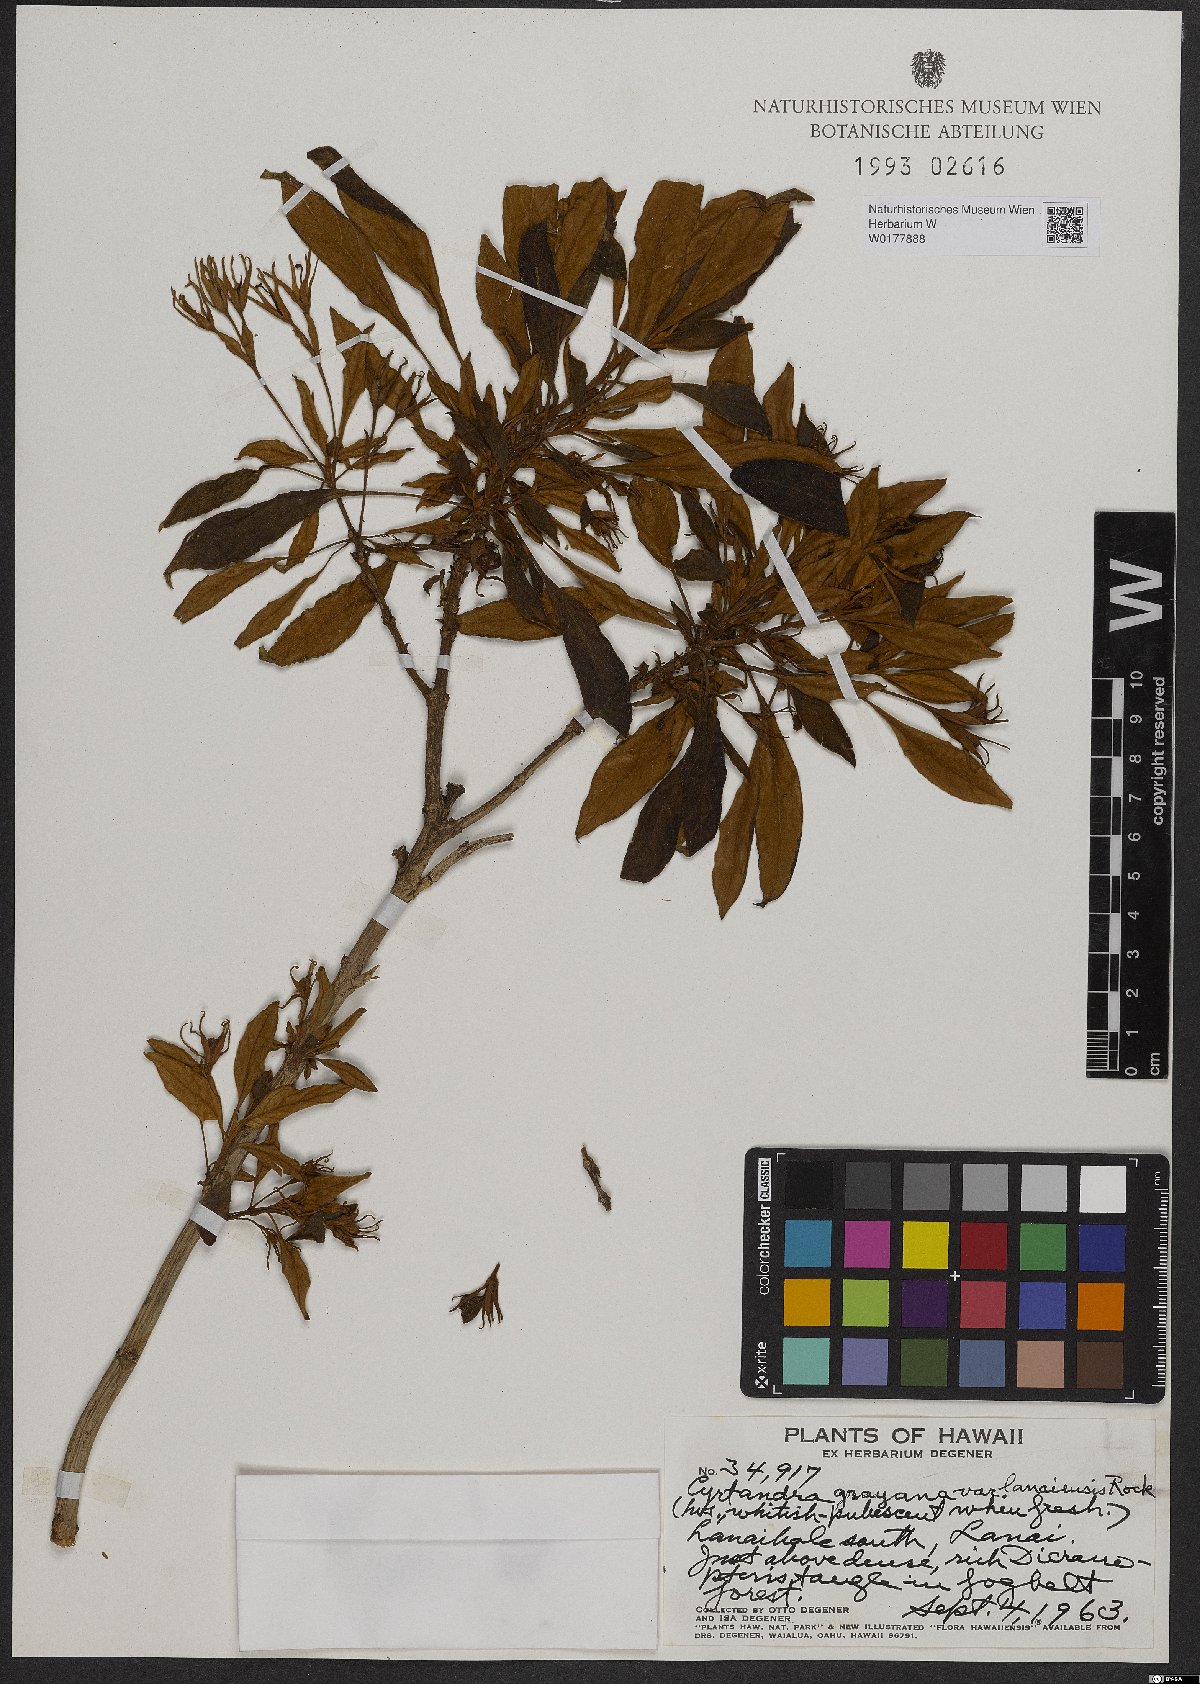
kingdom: Plantae
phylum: Tracheophyta
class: Magnoliopsida
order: Lamiales
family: Gesneriaceae
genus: Cyrtandra
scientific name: Cyrtandra grayana
